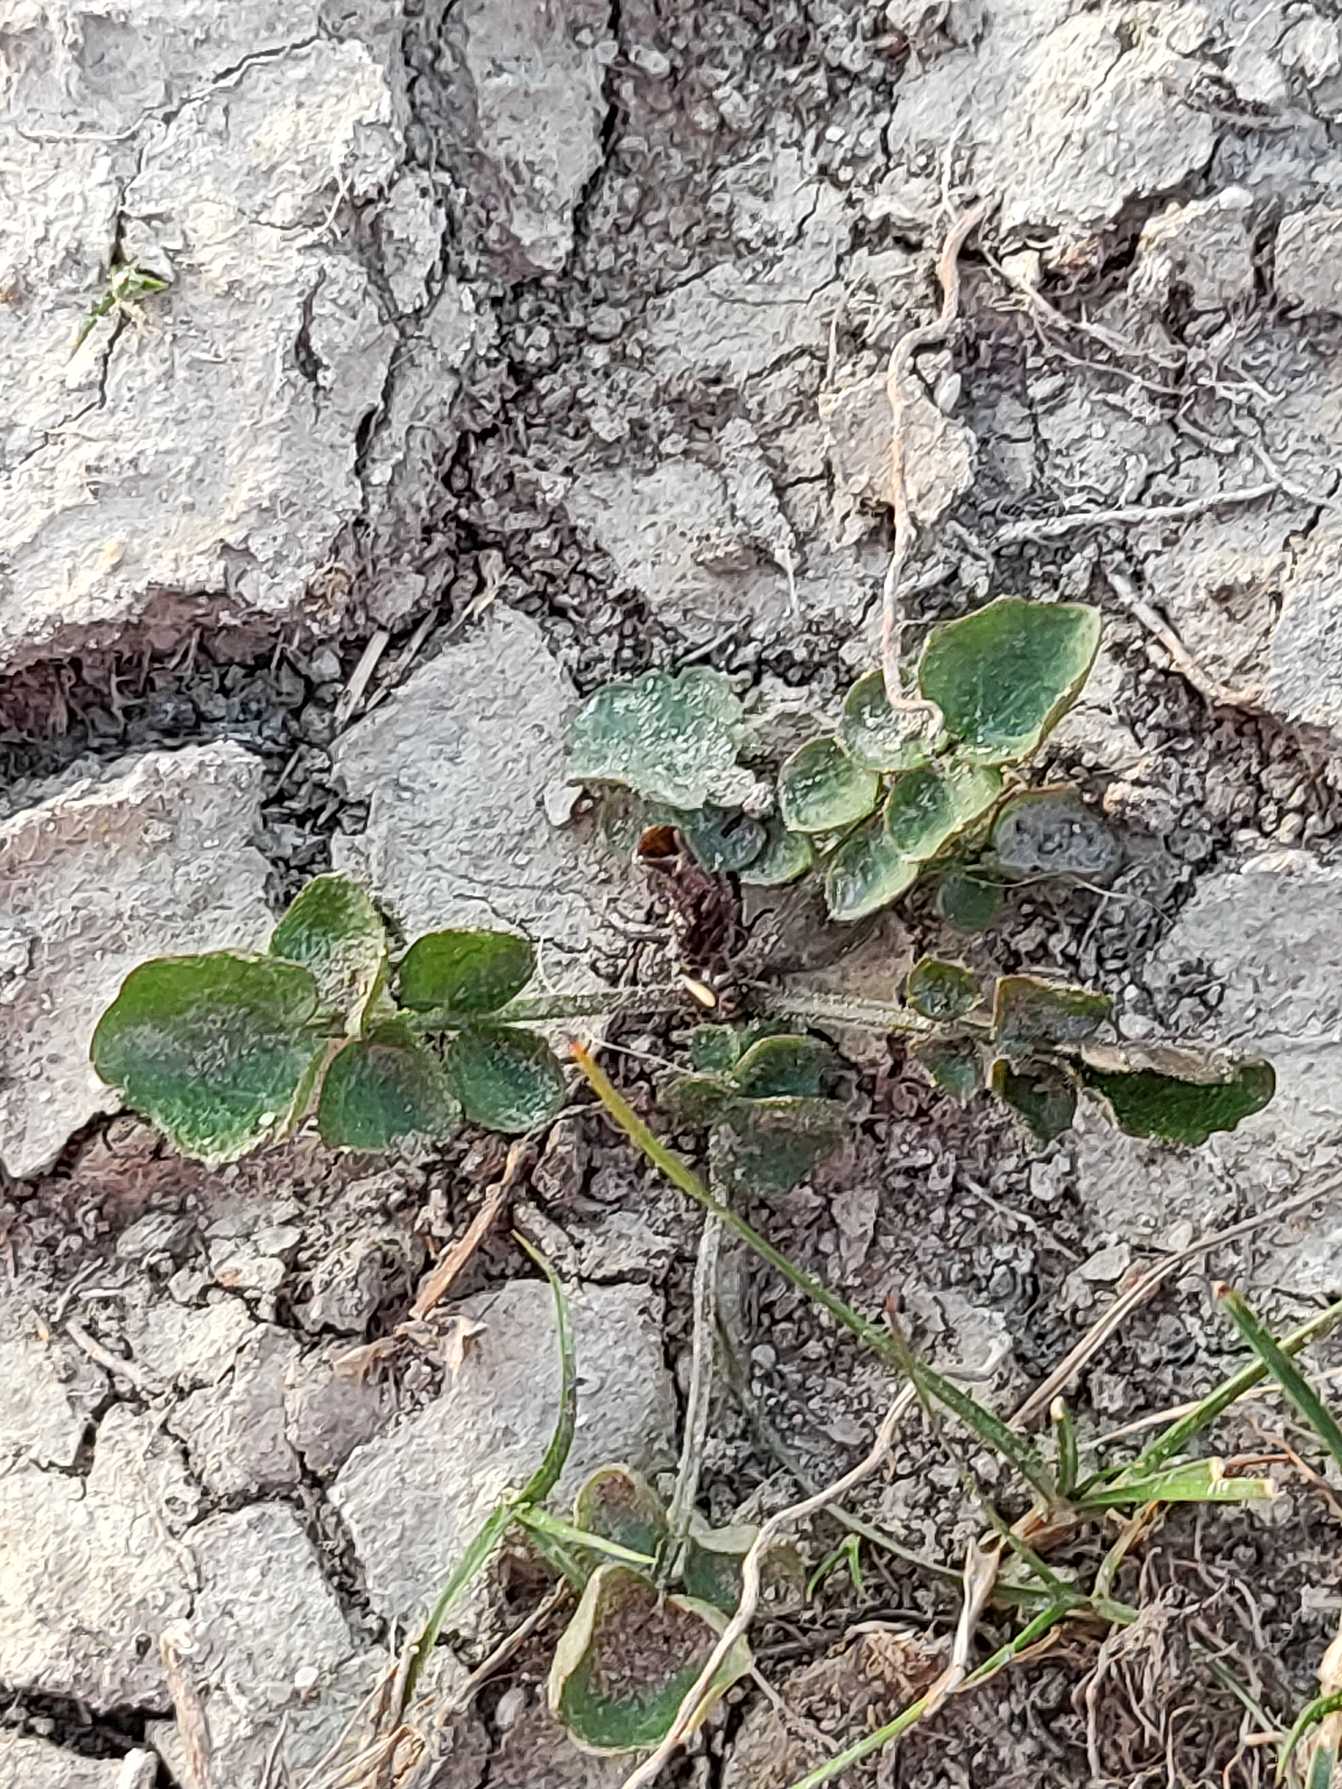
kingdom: Plantae
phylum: Tracheophyta
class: Magnoliopsida
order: Brassicales
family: Brassicaceae
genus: Cardamine
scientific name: Cardamine
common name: Springklapslægten
